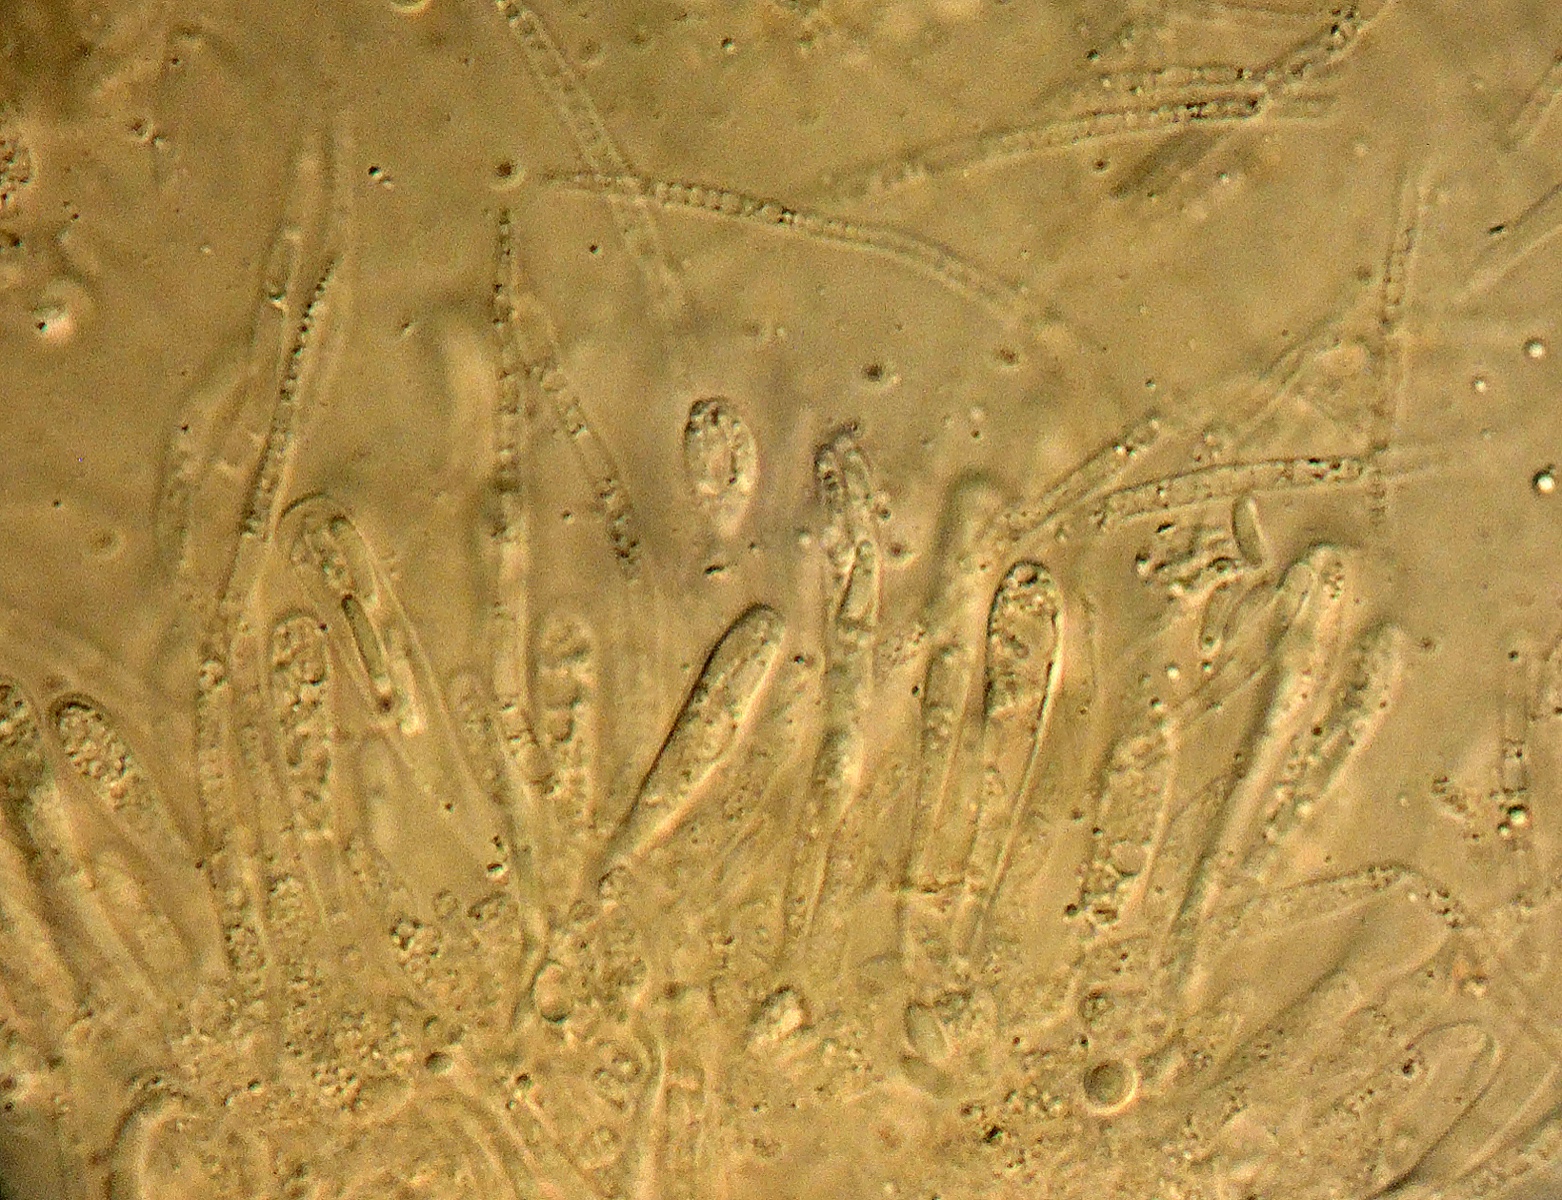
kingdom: Fungi
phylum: Ascomycota
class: Sordariomycetes
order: Calosphaeriales
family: Calosphaeriaceae
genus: Calosphaeria
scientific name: Calosphaeria
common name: slyngkerne
